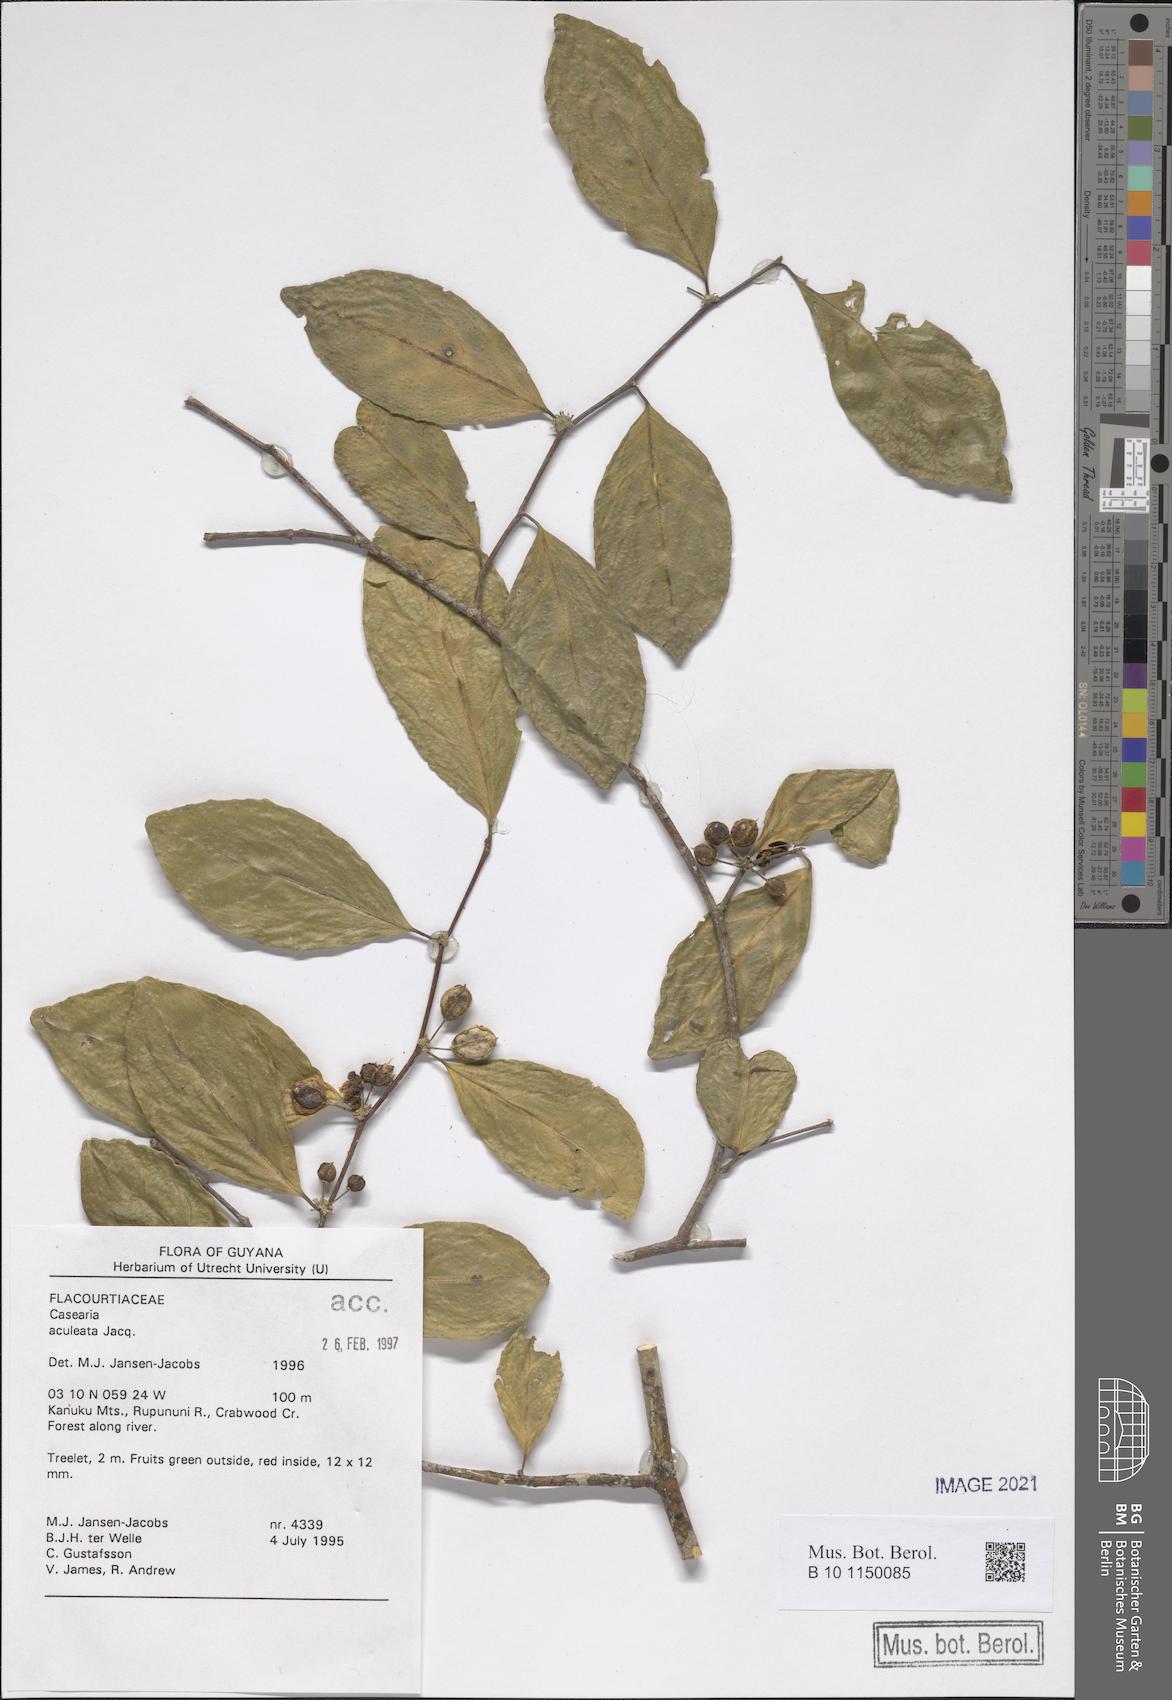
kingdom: Plantae
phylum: Tracheophyta
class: Magnoliopsida
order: Malpighiales
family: Salicaceae
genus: Casearia
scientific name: Casearia aculeata
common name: Cockspur
